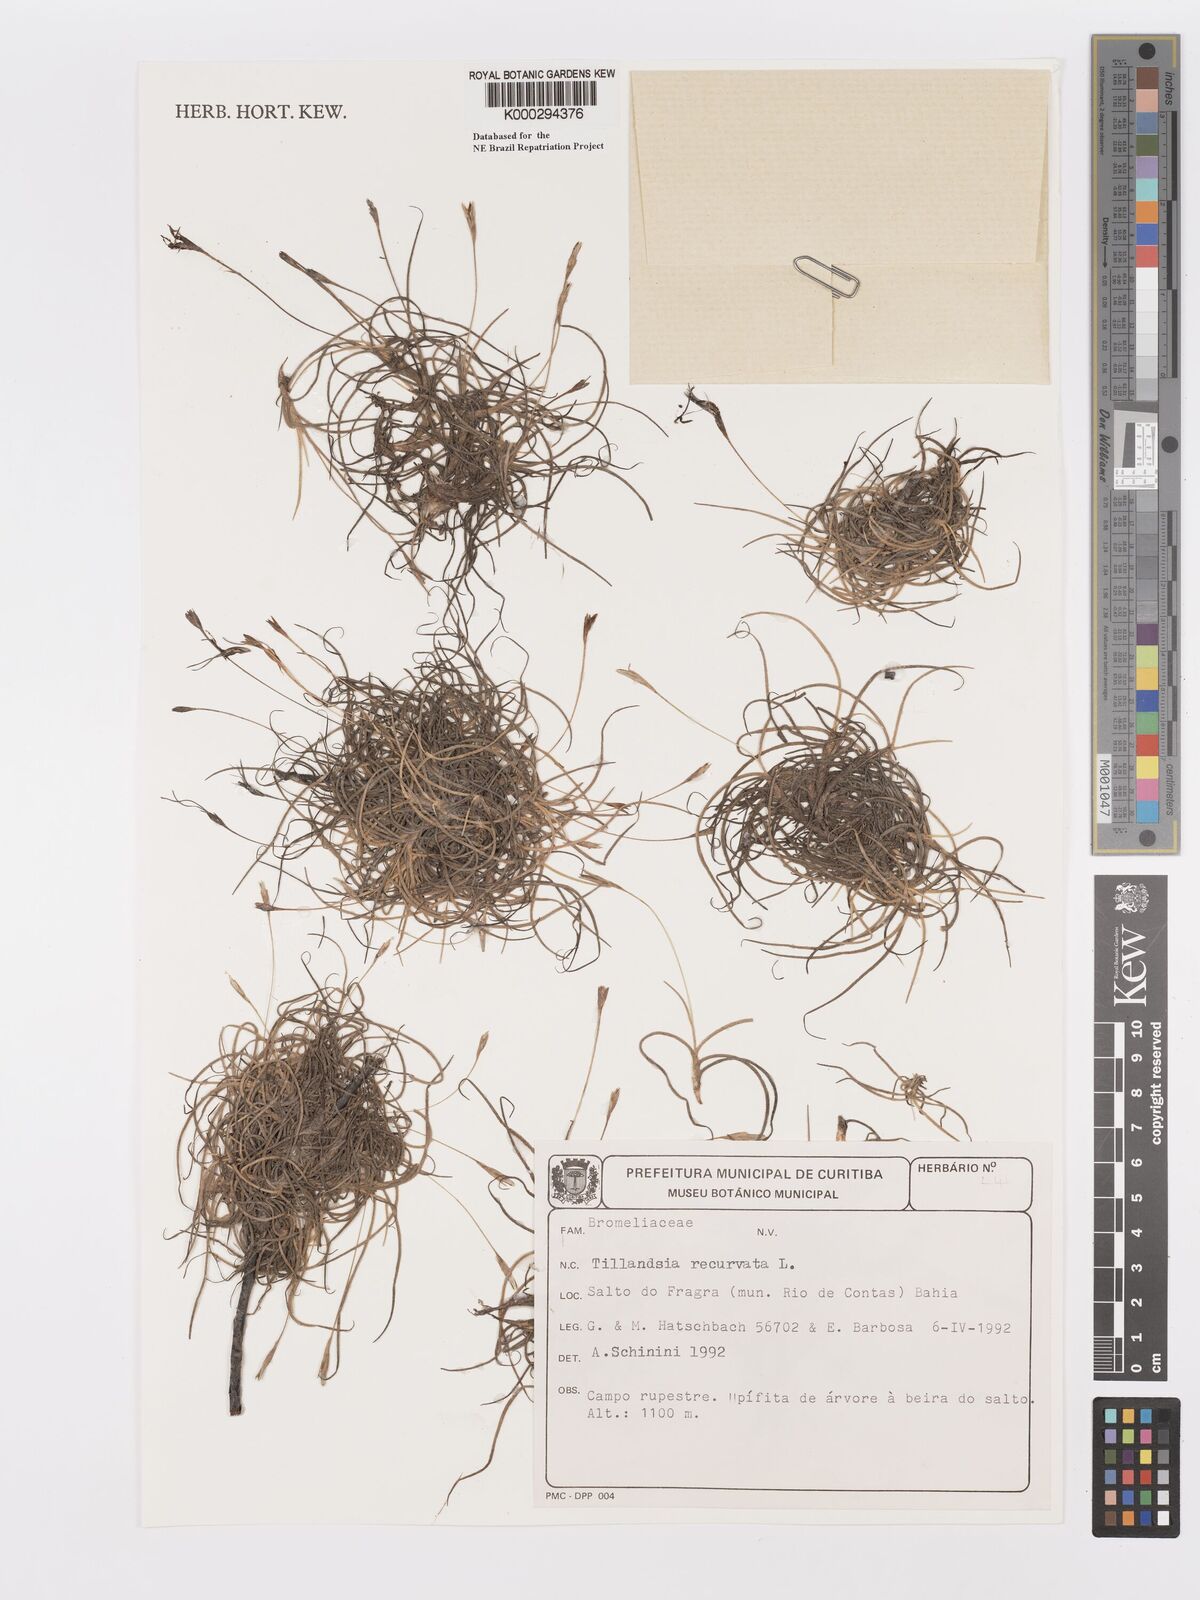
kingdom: Plantae
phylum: Tracheophyta
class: Liliopsida
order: Poales
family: Bromeliaceae
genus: Tillandsia
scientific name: Tillandsia recurvata
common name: Small ballmoss
